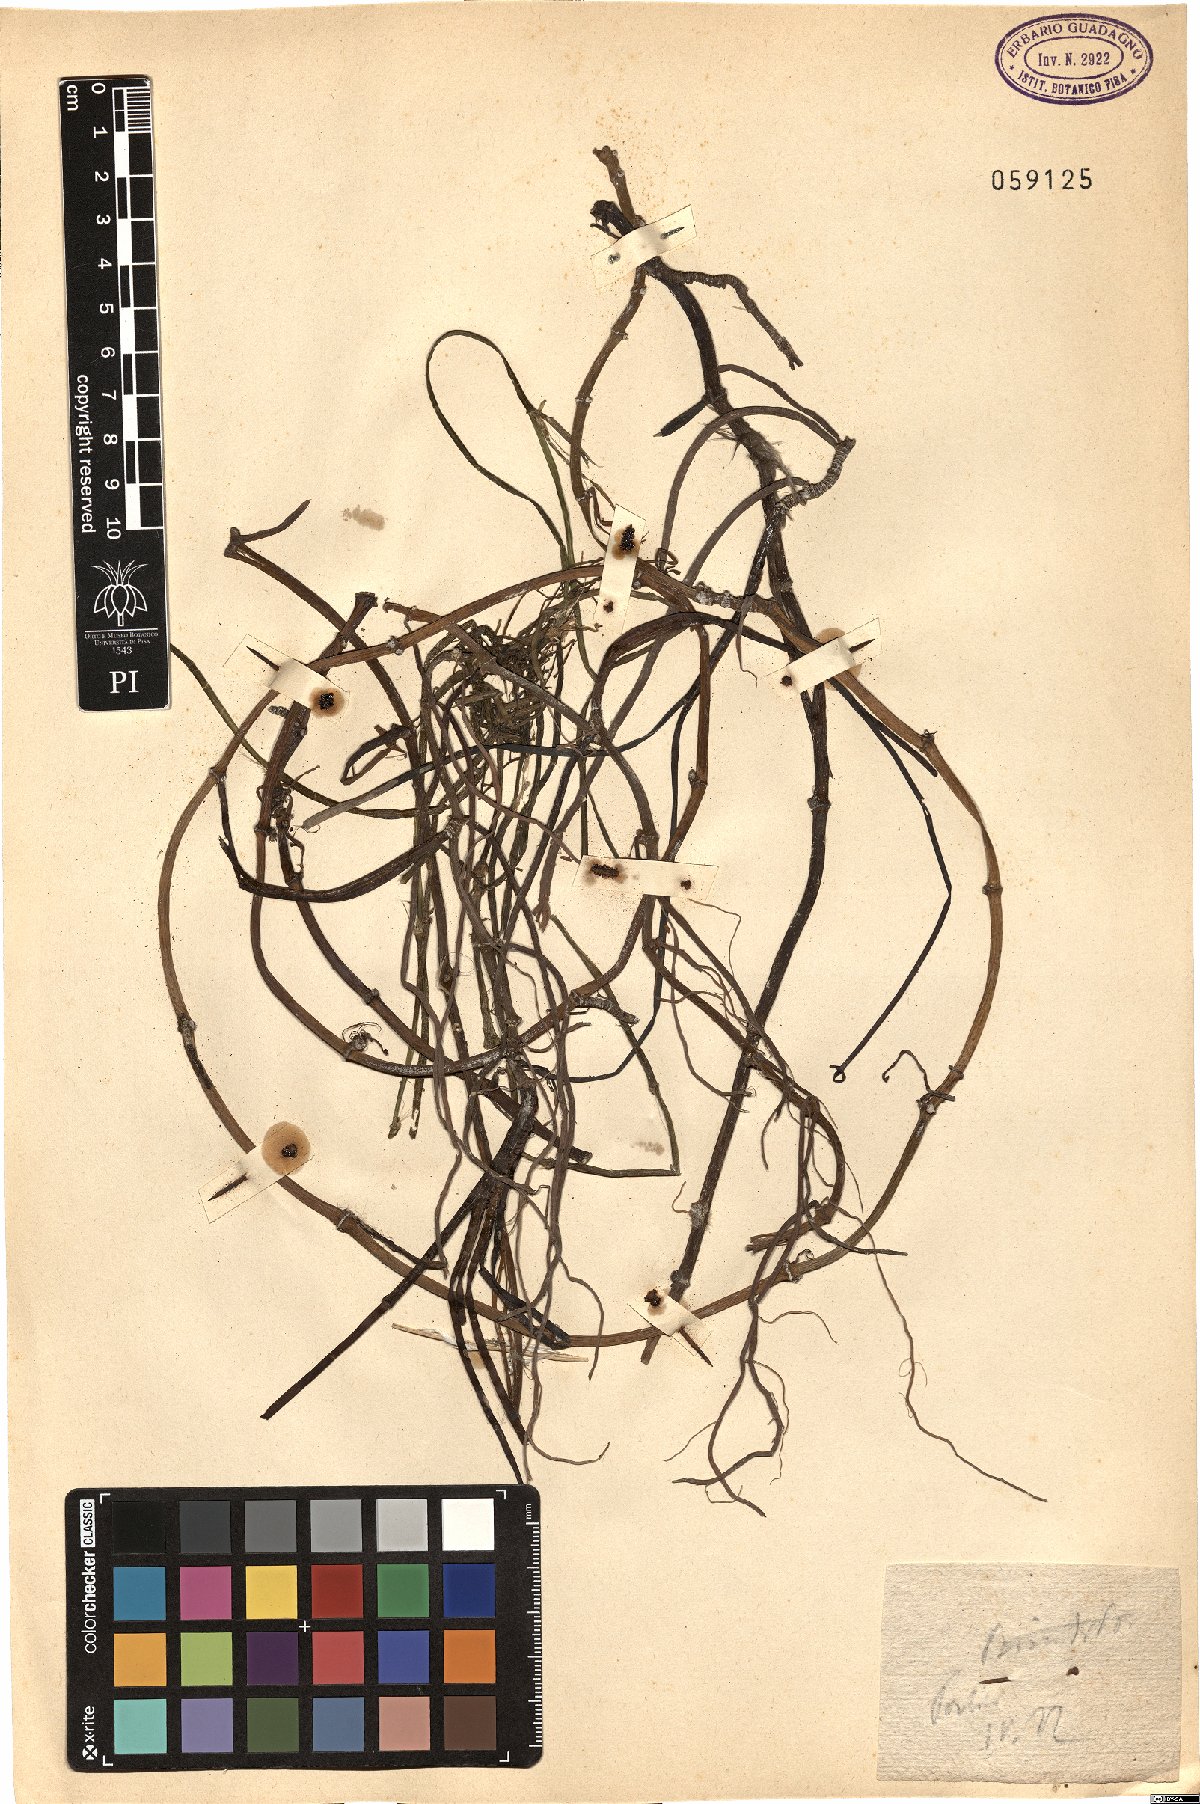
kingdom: Plantae
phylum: Tracheophyta
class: Liliopsida
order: Alismatales
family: Cymodoceaceae
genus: Cymodocea
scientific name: Cymodocea nodosa
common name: Slender seagrass
